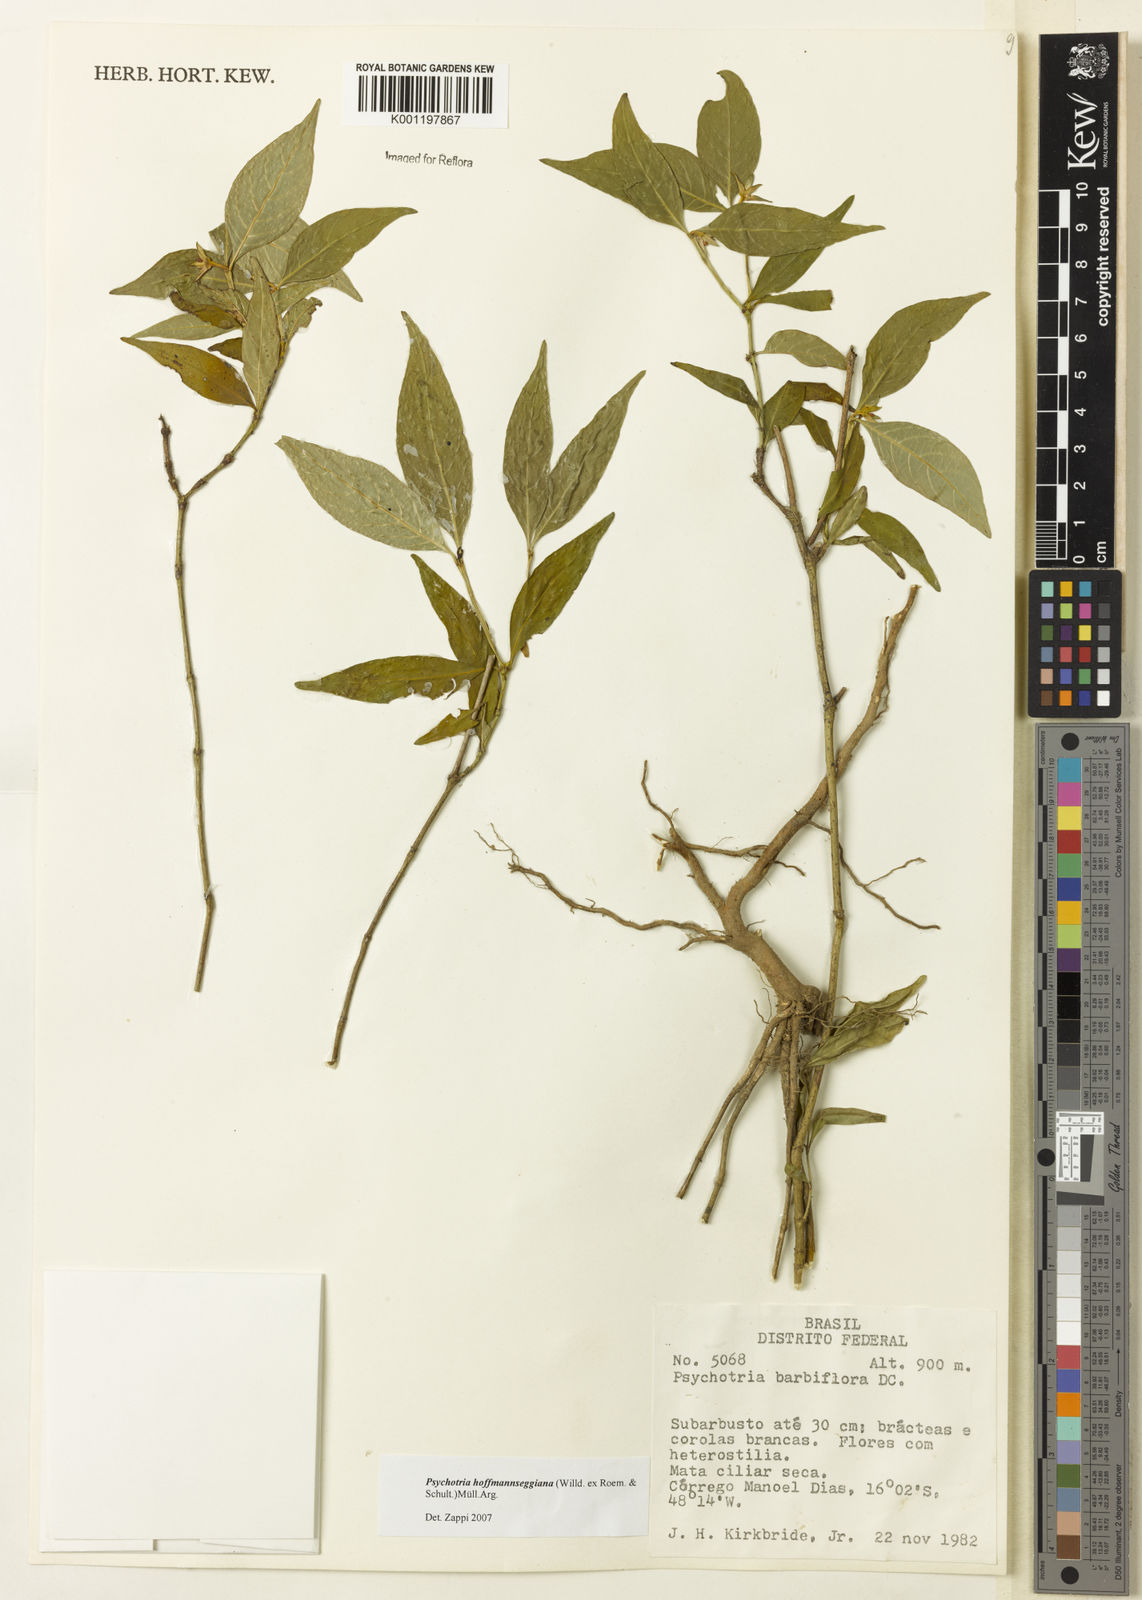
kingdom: Plantae
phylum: Tracheophyta
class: Magnoliopsida
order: Gentianales
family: Rubiaceae
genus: Psychotria
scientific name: Psychotria
